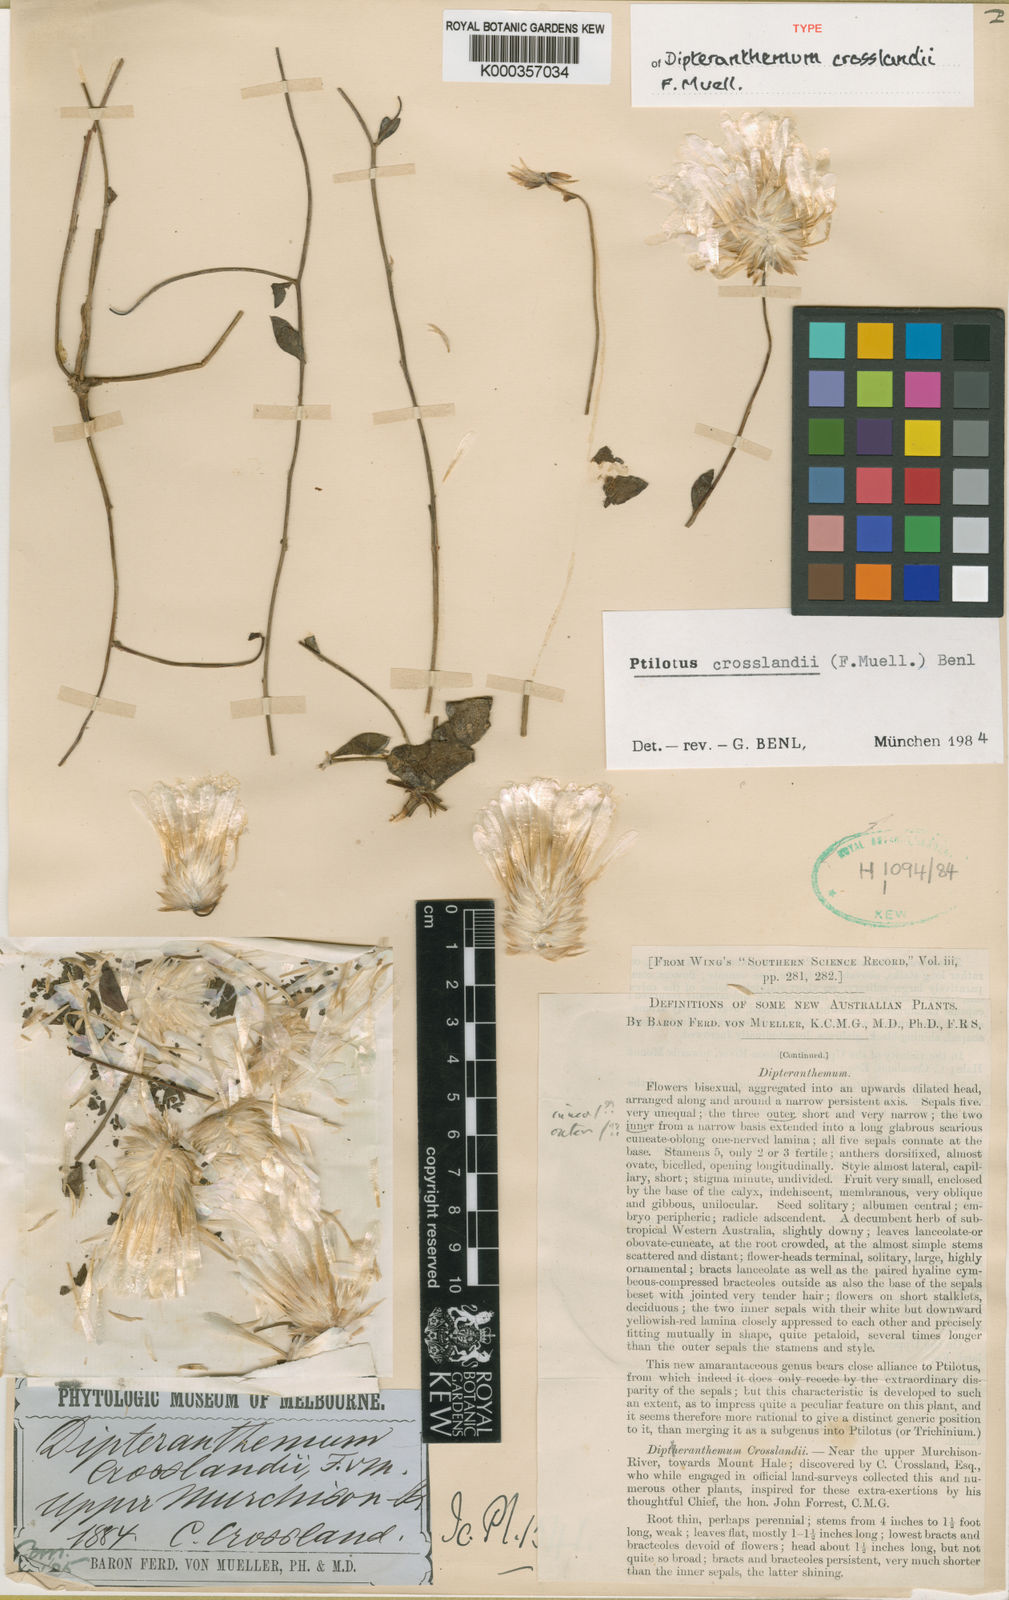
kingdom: Plantae
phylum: Tracheophyta
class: Magnoliopsida
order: Caryophyllales
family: Amaranthaceae
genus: Ptilotus
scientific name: Ptilotus crosslandii
